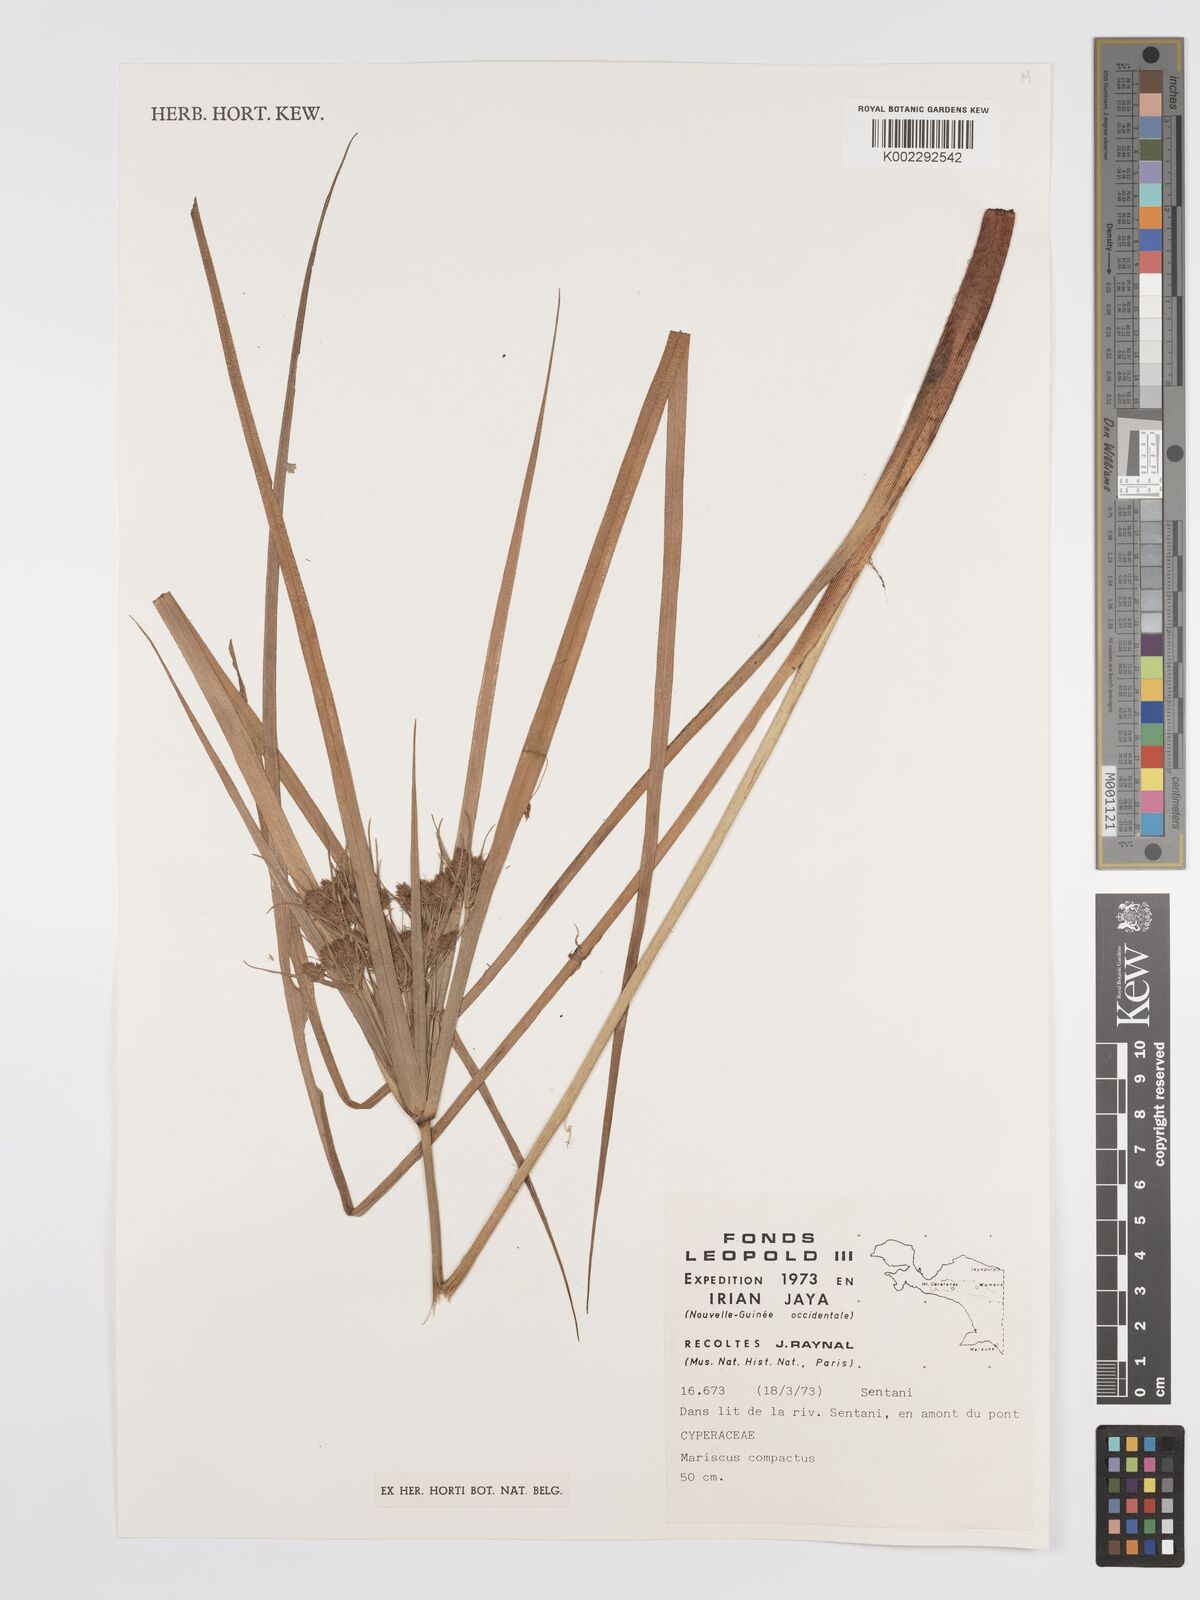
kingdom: Plantae
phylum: Tracheophyta
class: Liliopsida
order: Poales
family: Cyperaceae
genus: Cyperus
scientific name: Cyperus compactus
